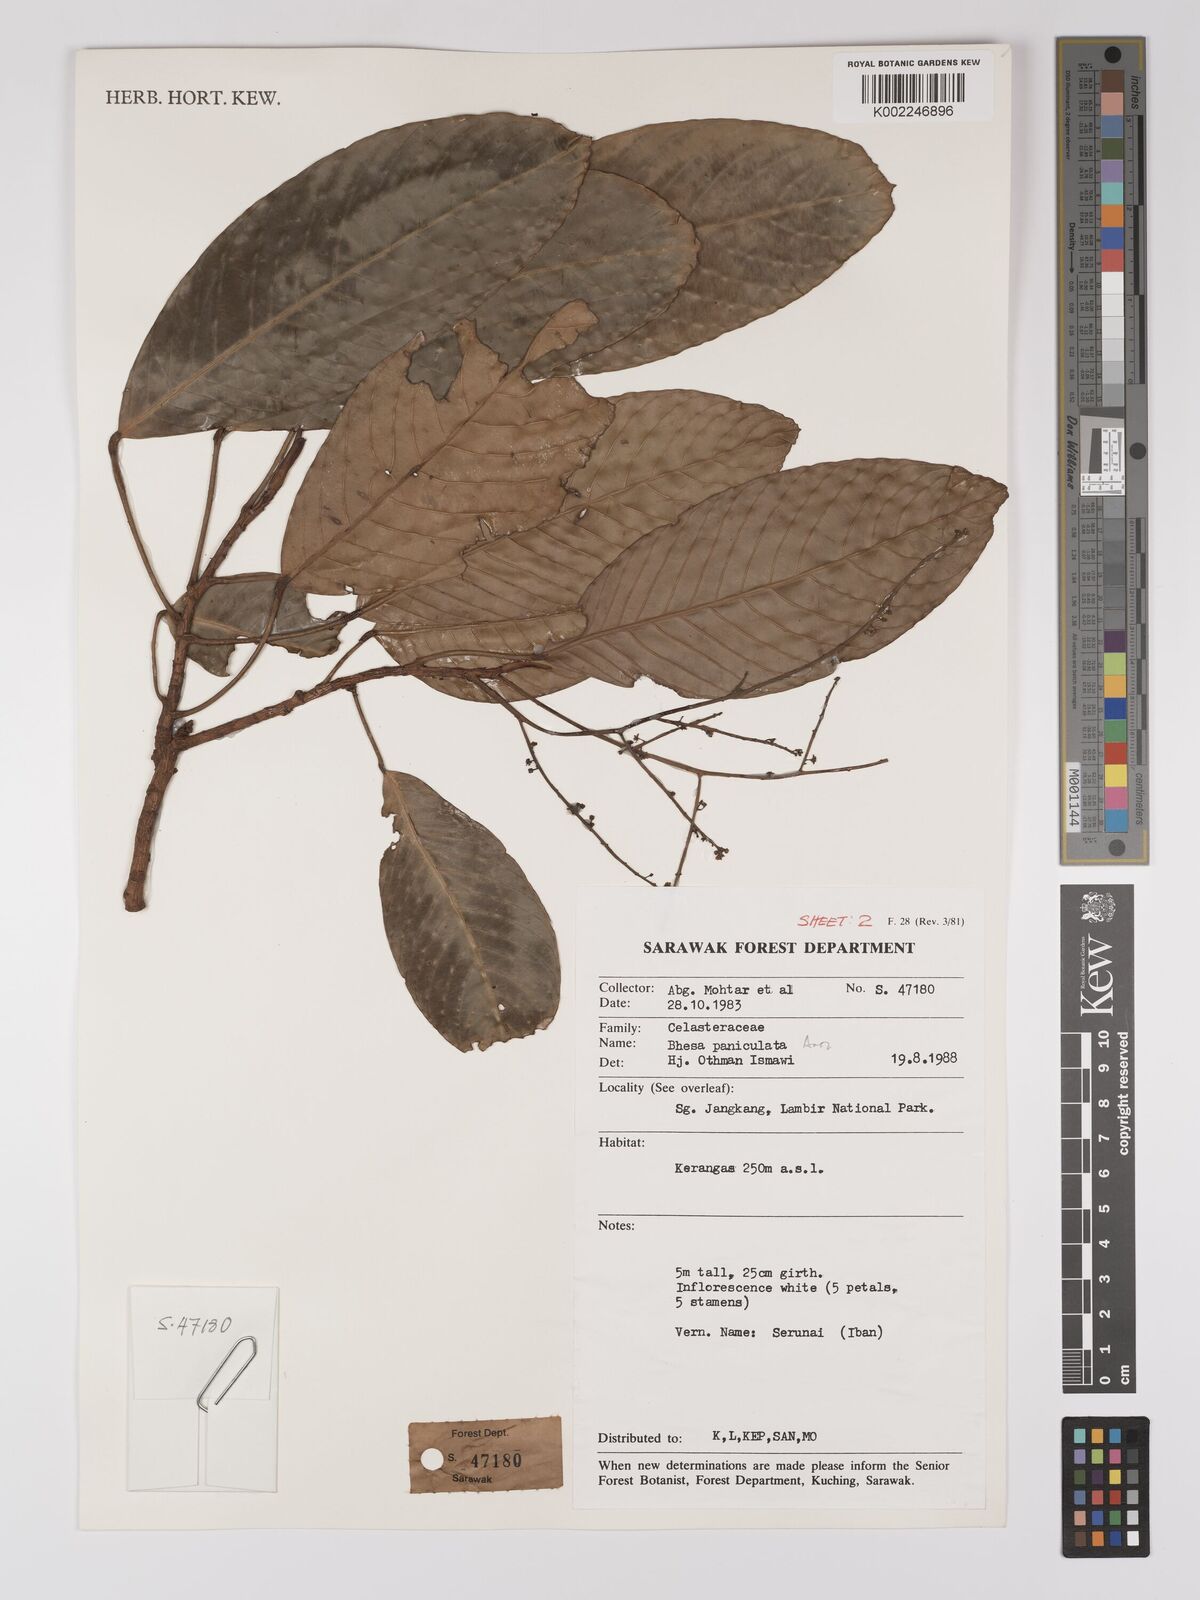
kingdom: Plantae
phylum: Tracheophyta
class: Magnoliopsida
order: Malpighiales
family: Centroplacaceae
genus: Bhesa
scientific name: Bhesa paniculata
